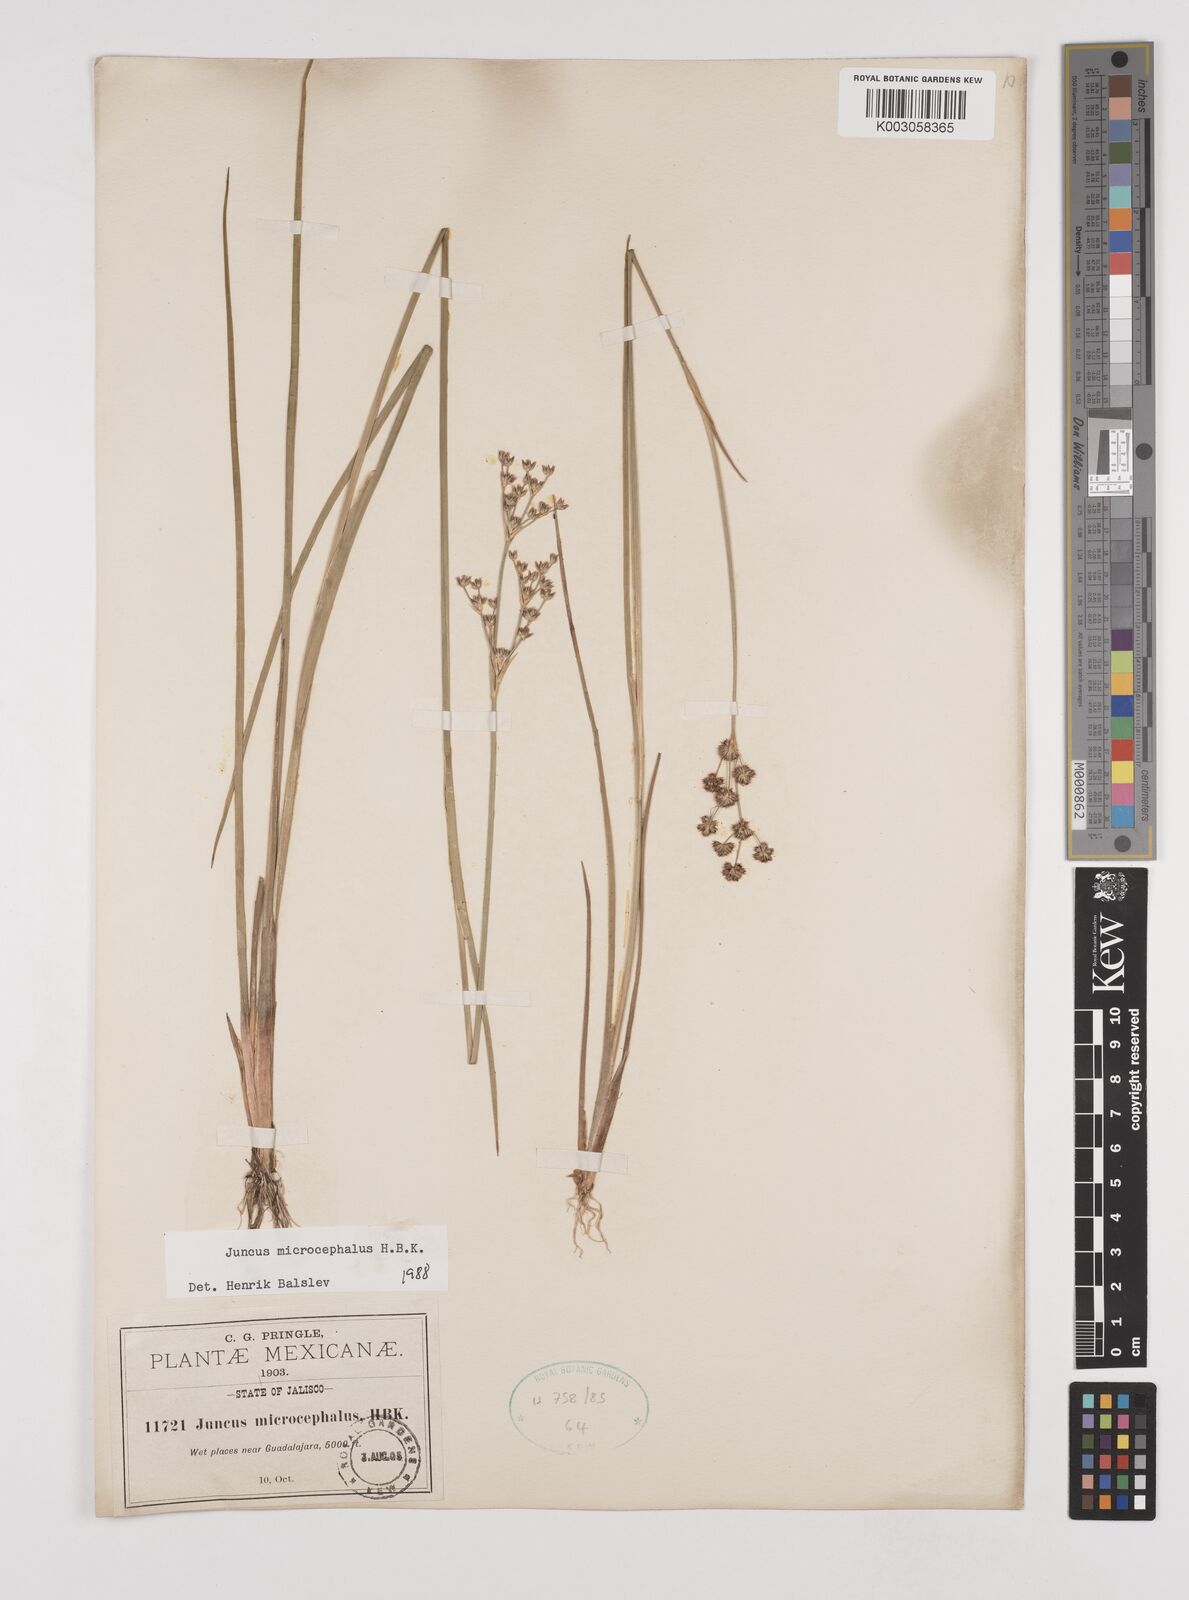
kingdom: Plantae
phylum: Tracheophyta
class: Liliopsida
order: Poales
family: Juncaceae
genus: Juncus
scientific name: Juncus microcephalus
